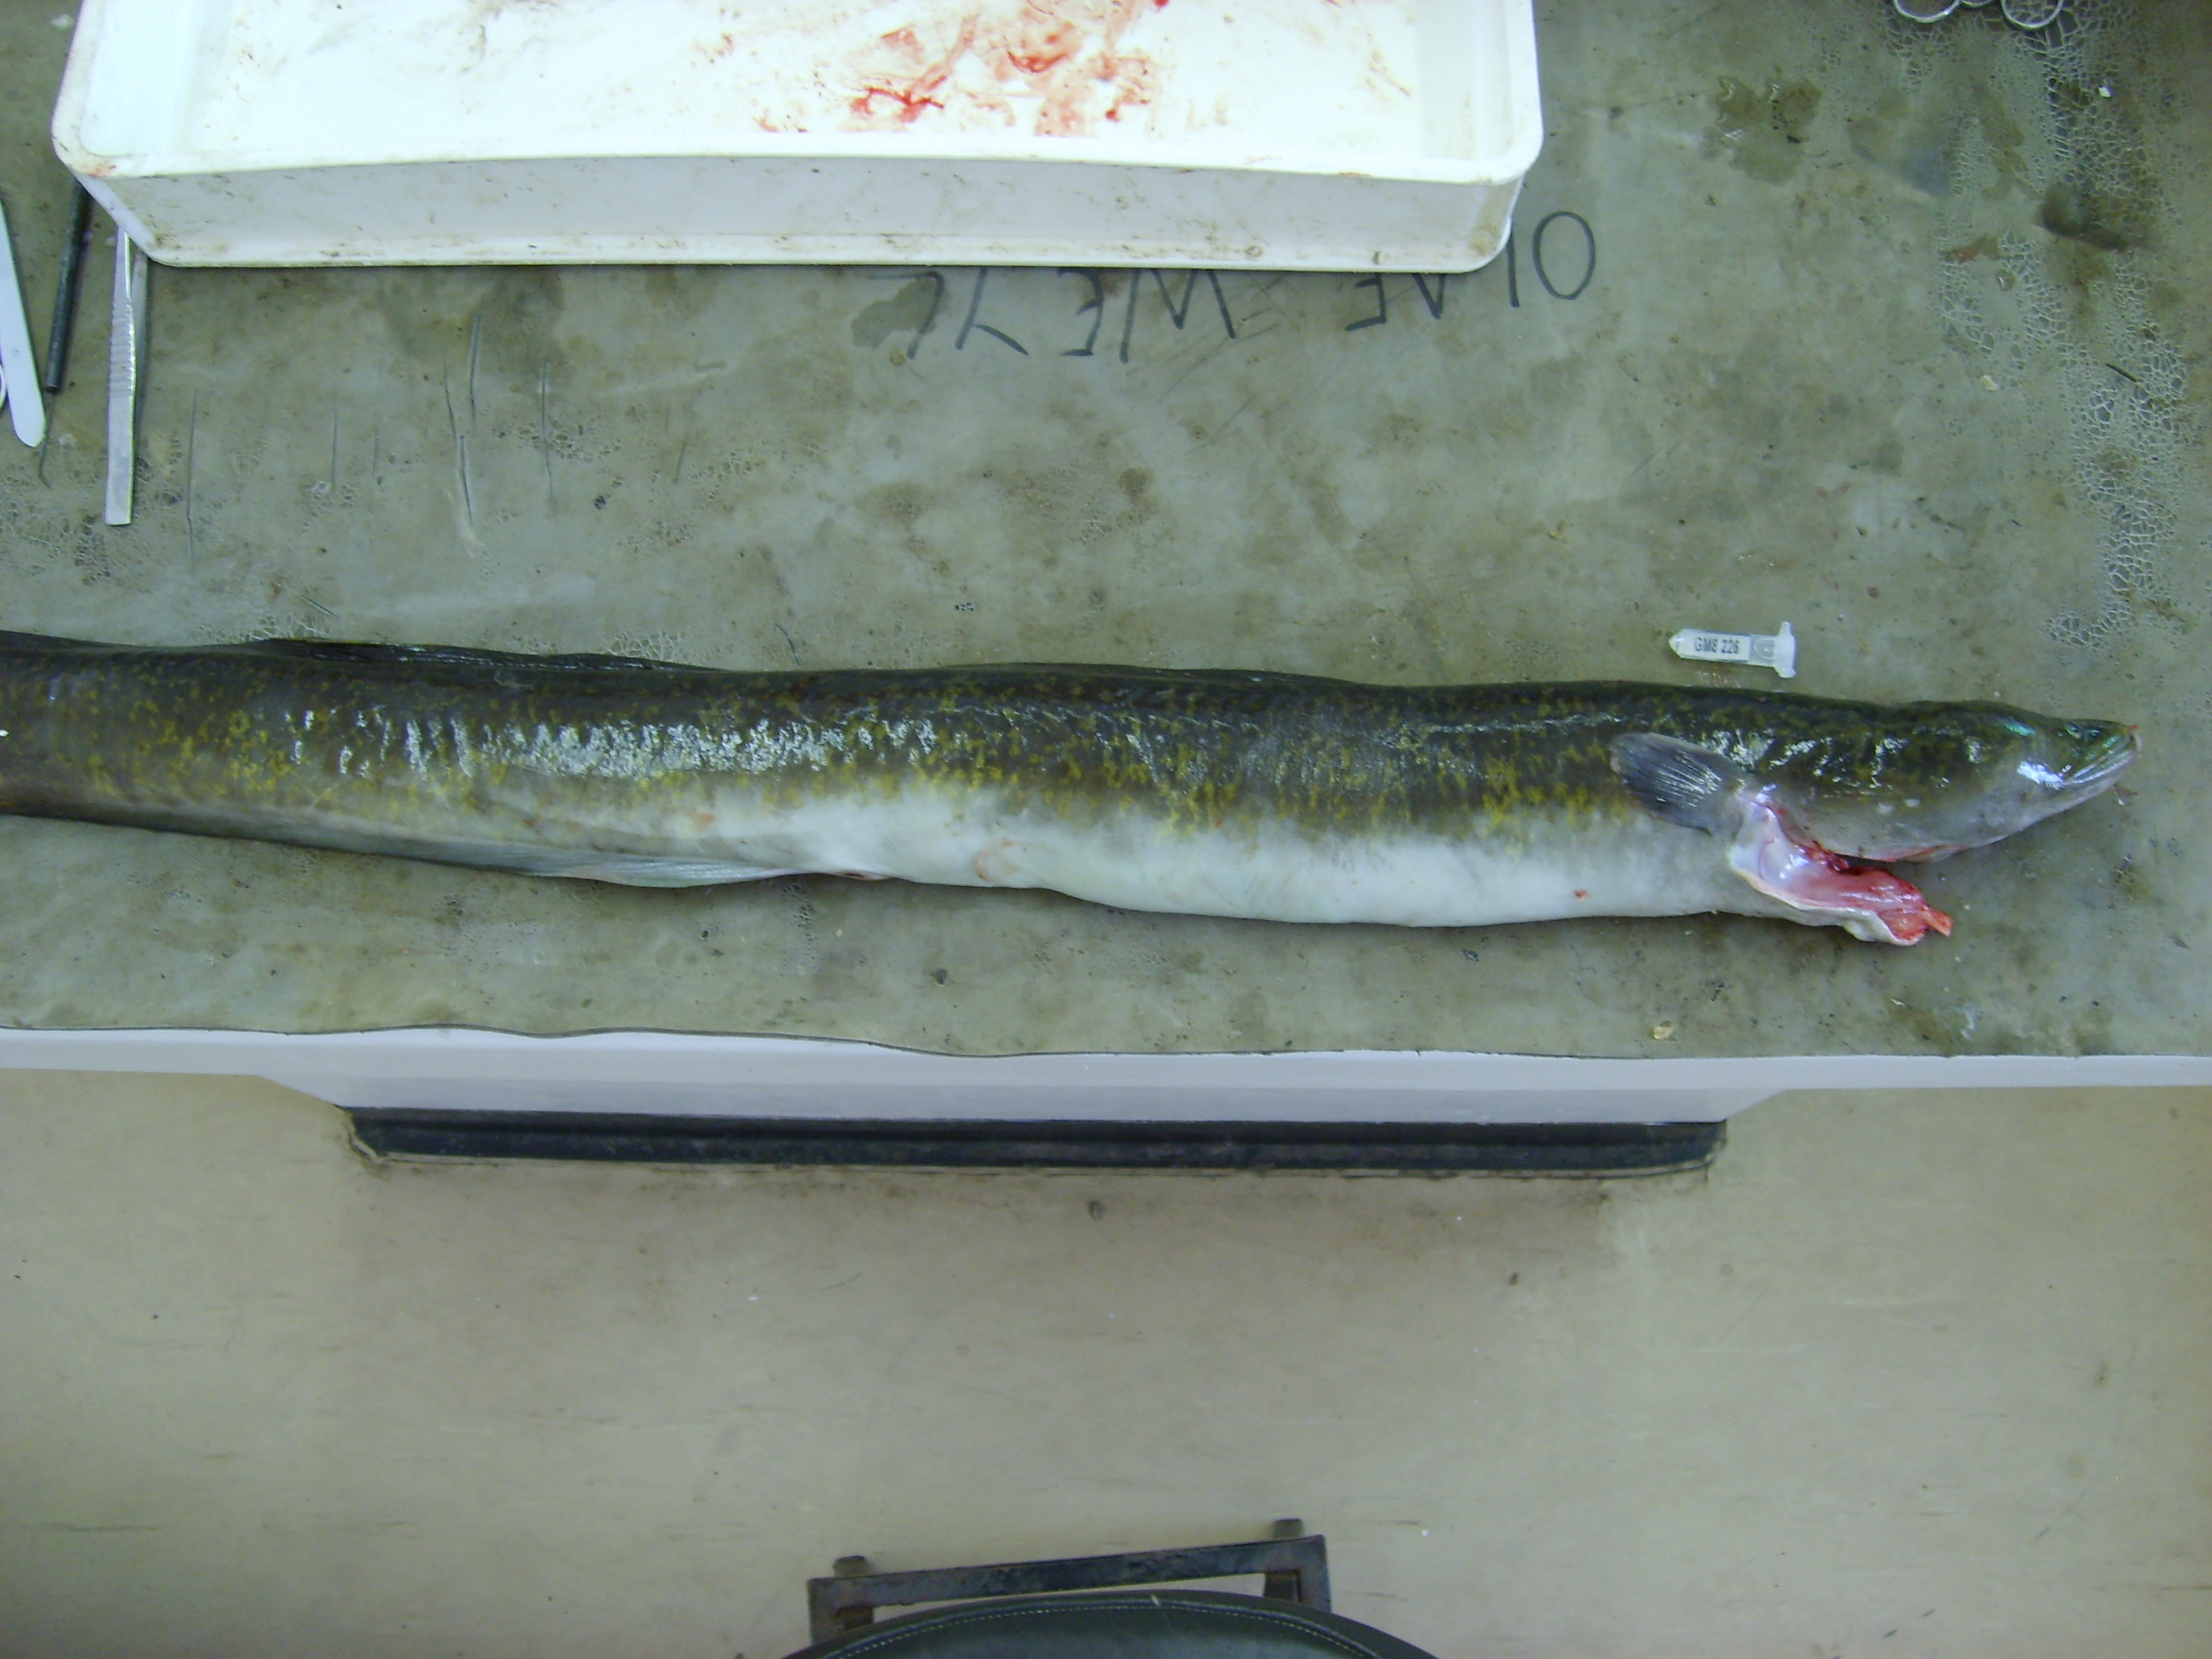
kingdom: Animalia
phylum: Chordata
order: Anguilliformes
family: Anguillidae
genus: Anguilla
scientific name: Anguilla marmorata
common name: Giant mottled eel
